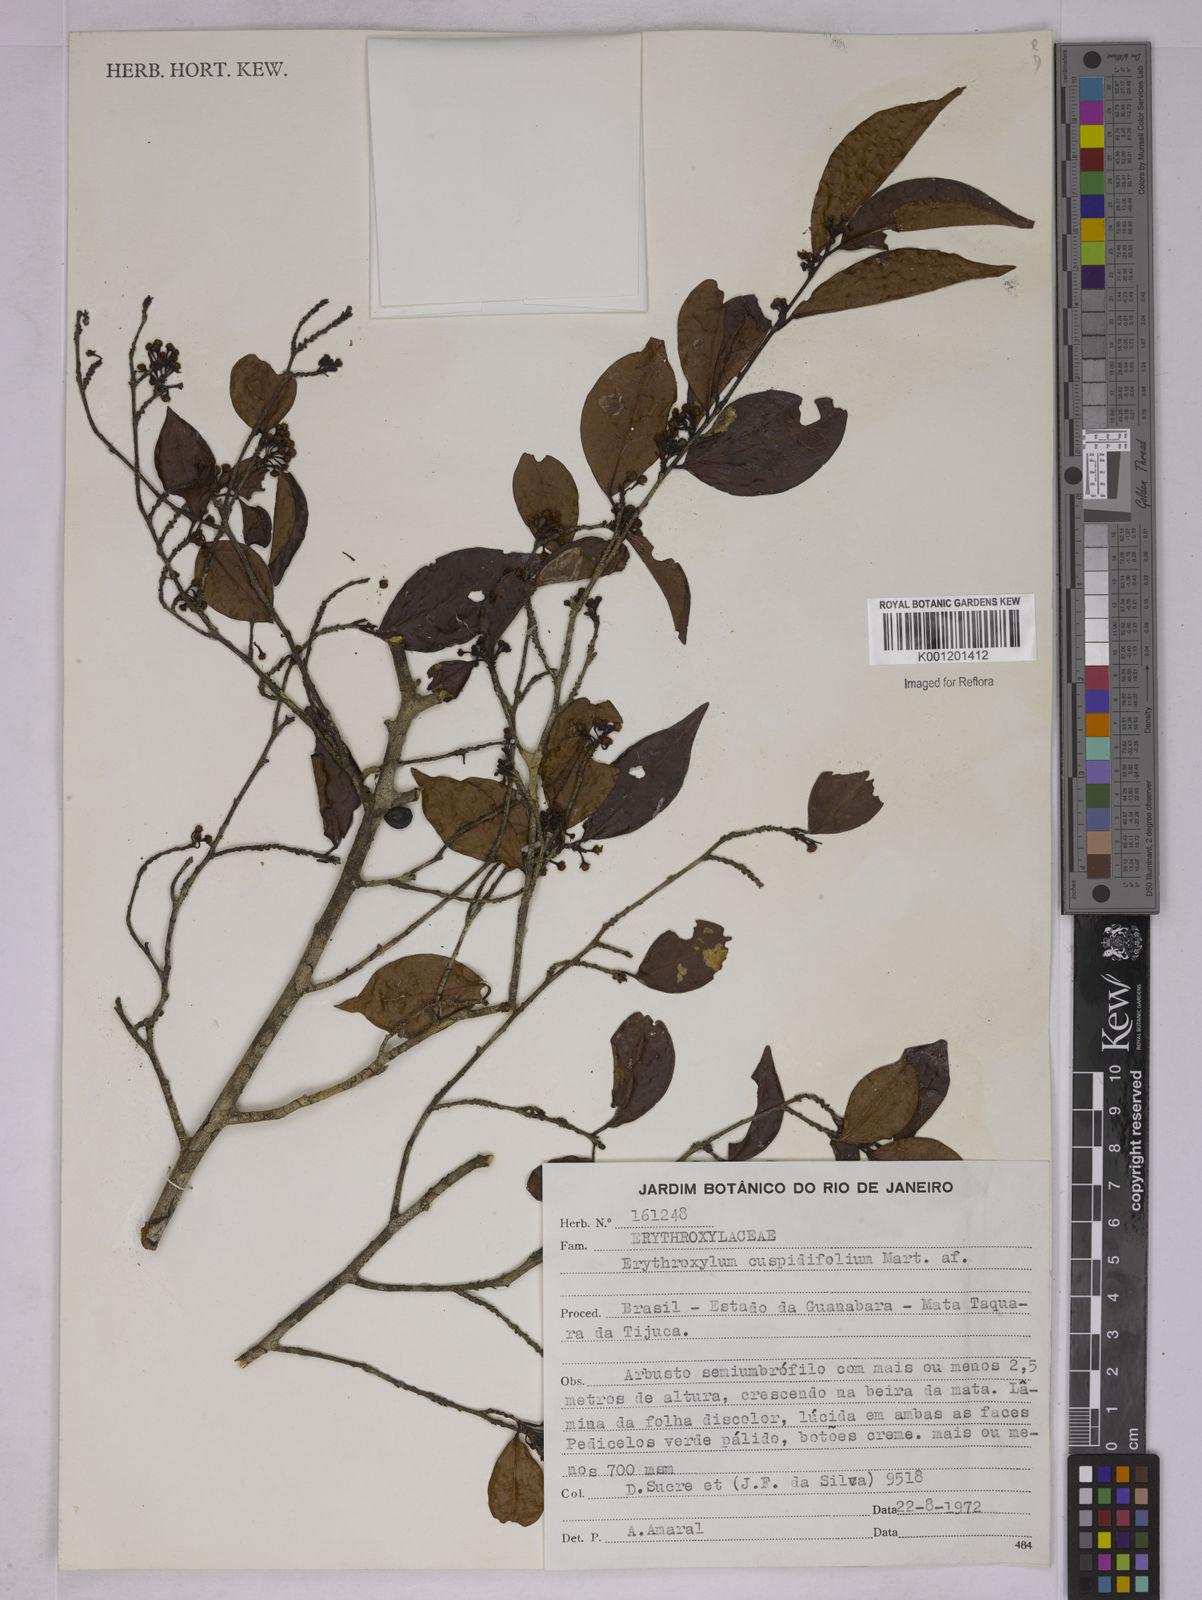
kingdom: Plantae
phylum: Tracheophyta
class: Magnoliopsida
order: Malpighiales
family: Erythroxylaceae
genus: Erythroxylum
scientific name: Erythroxylum cuspidifolium
